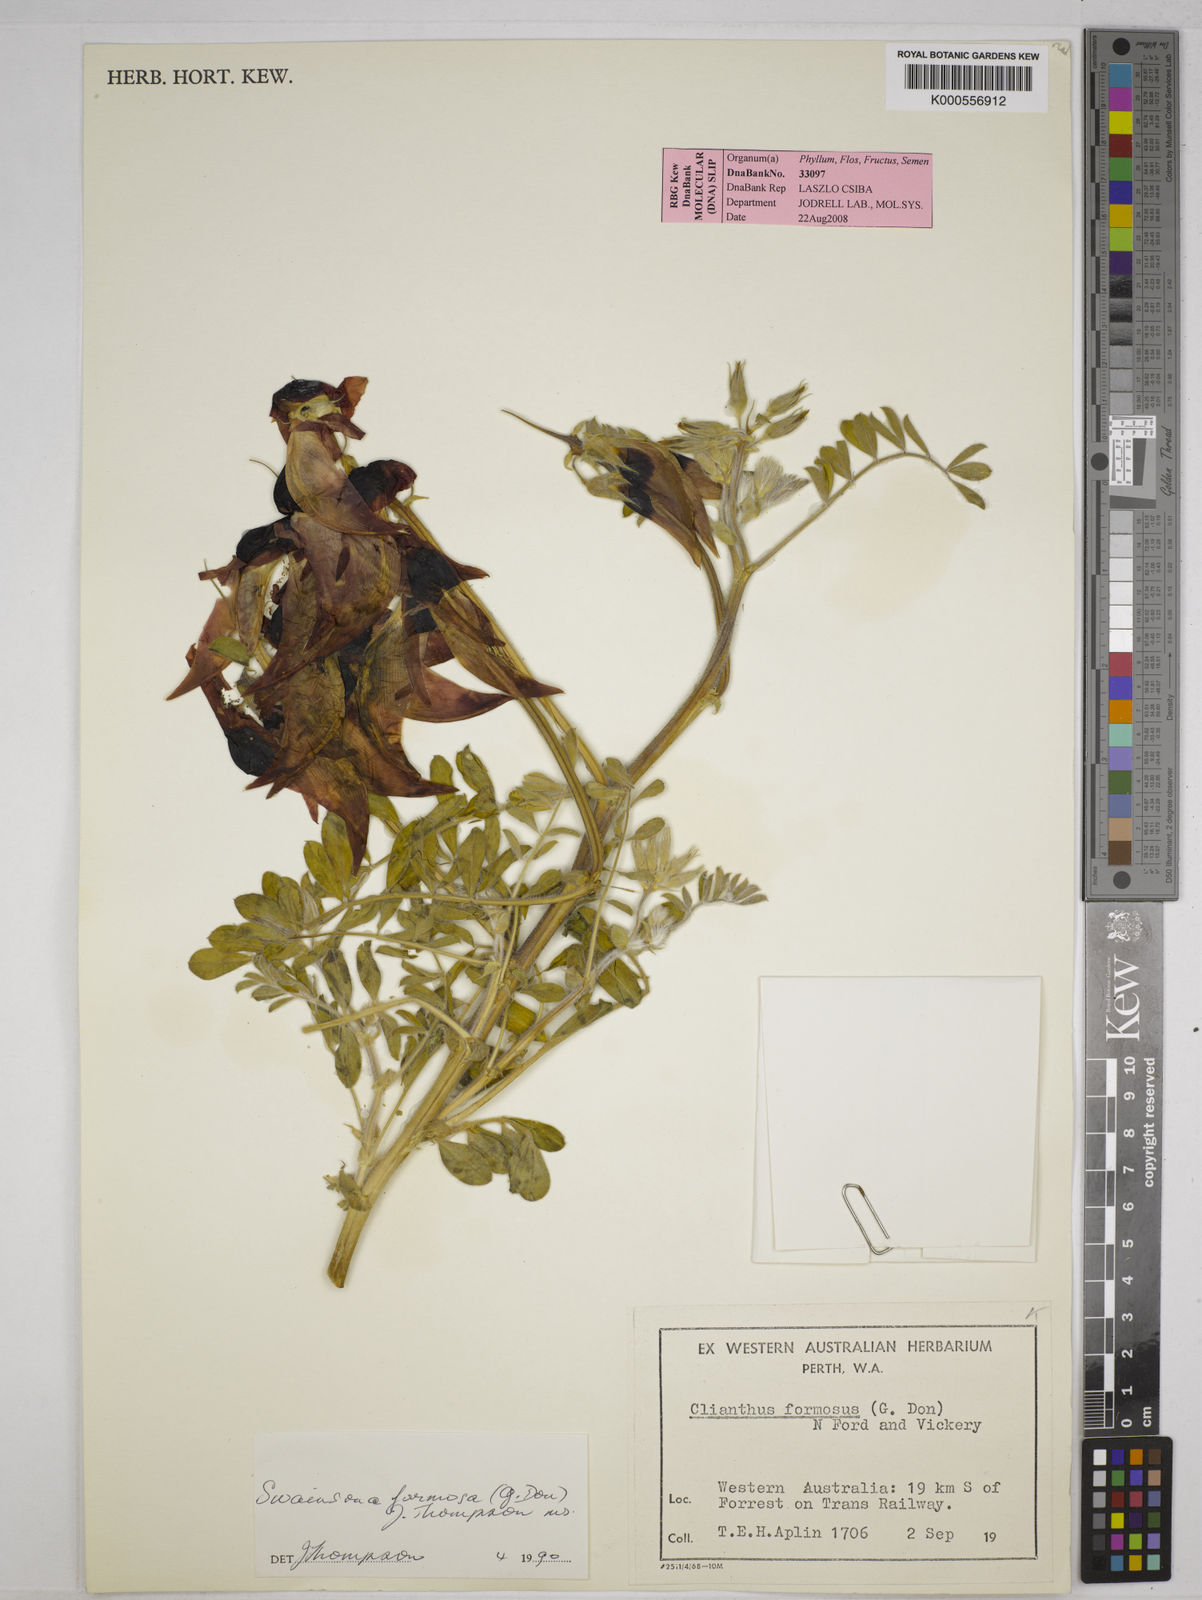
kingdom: Plantae
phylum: Tracheophyta
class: Magnoliopsida
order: Fabales
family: Fabaceae
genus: Swainsona
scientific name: Swainsona formosa
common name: Sturt's desert-pea
